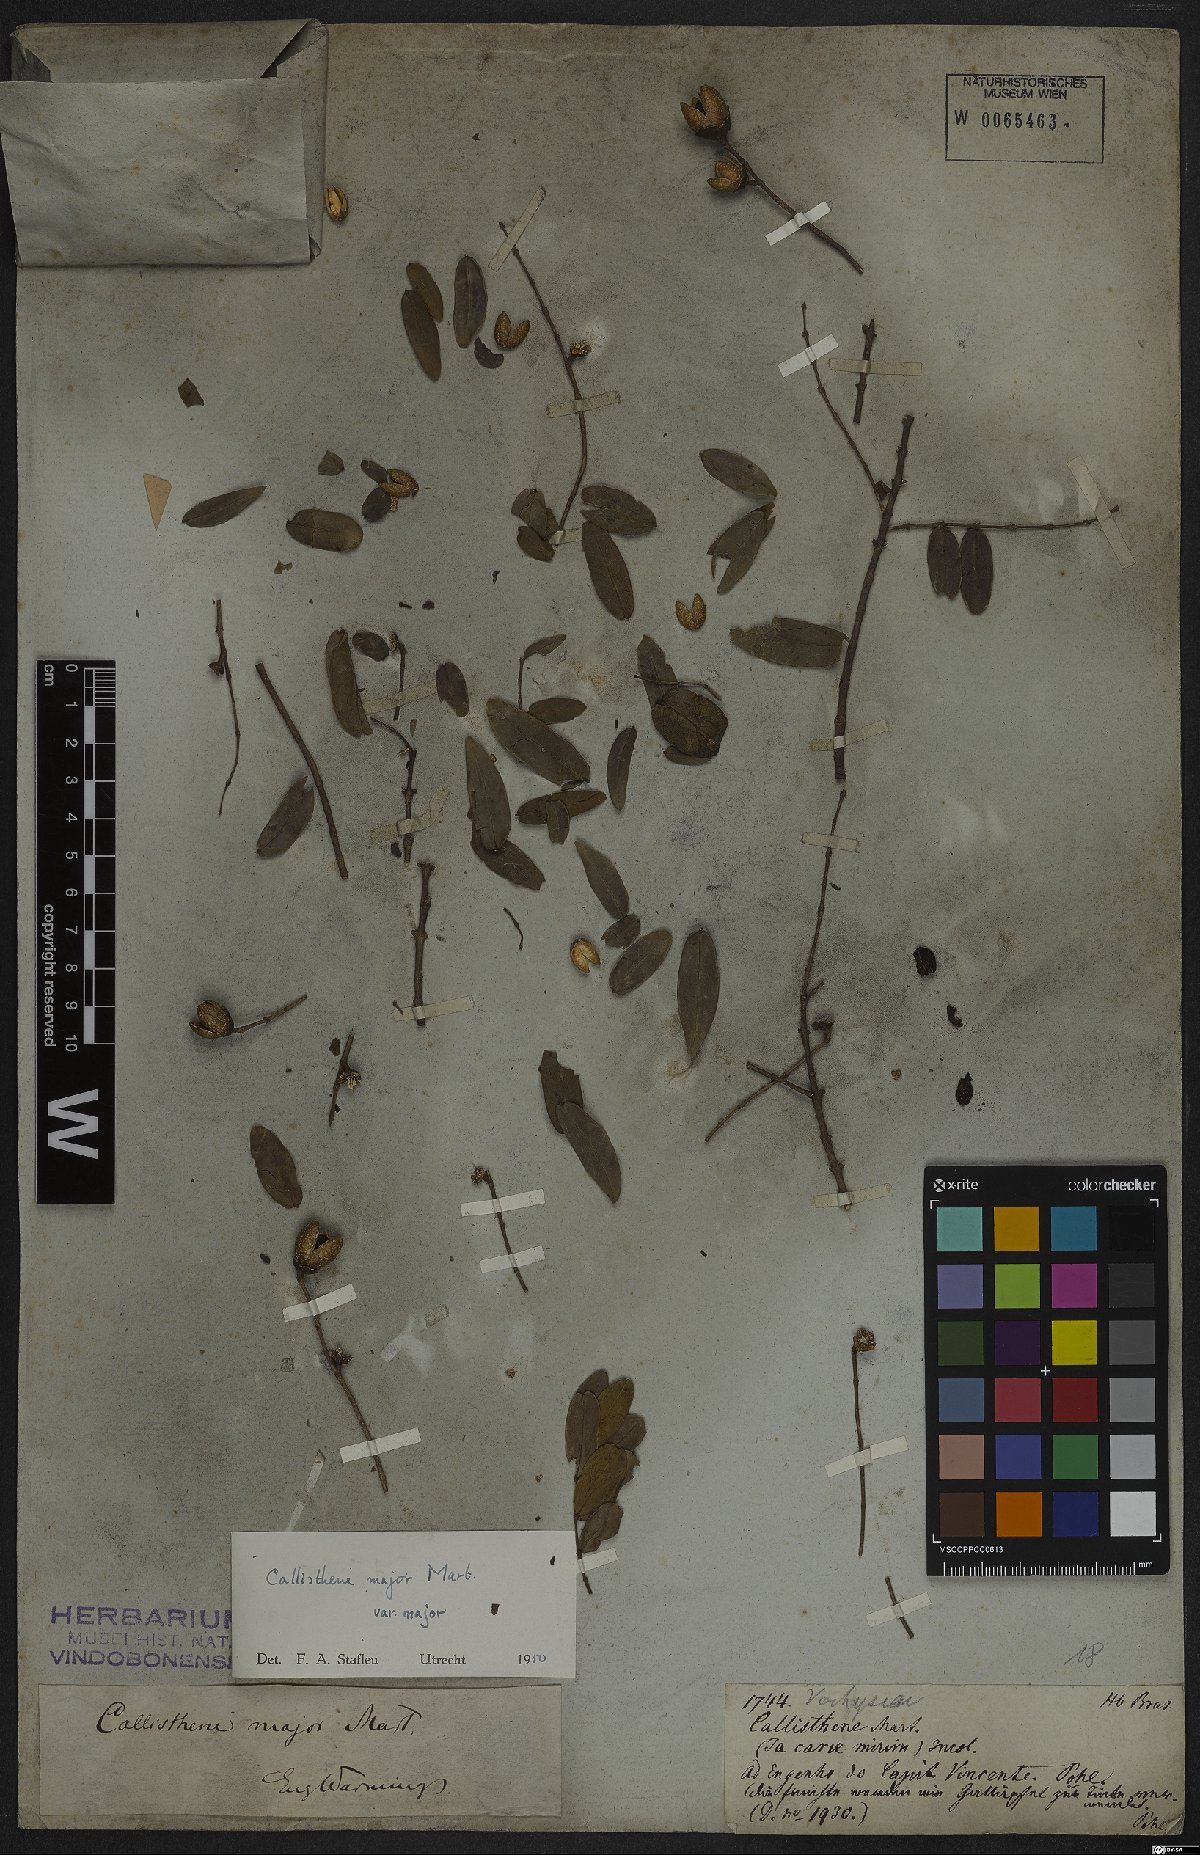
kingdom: Plantae
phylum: Tracheophyta
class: Magnoliopsida
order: Myrtales
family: Vochysiaceae
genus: Callisthene
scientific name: Callisthene major
